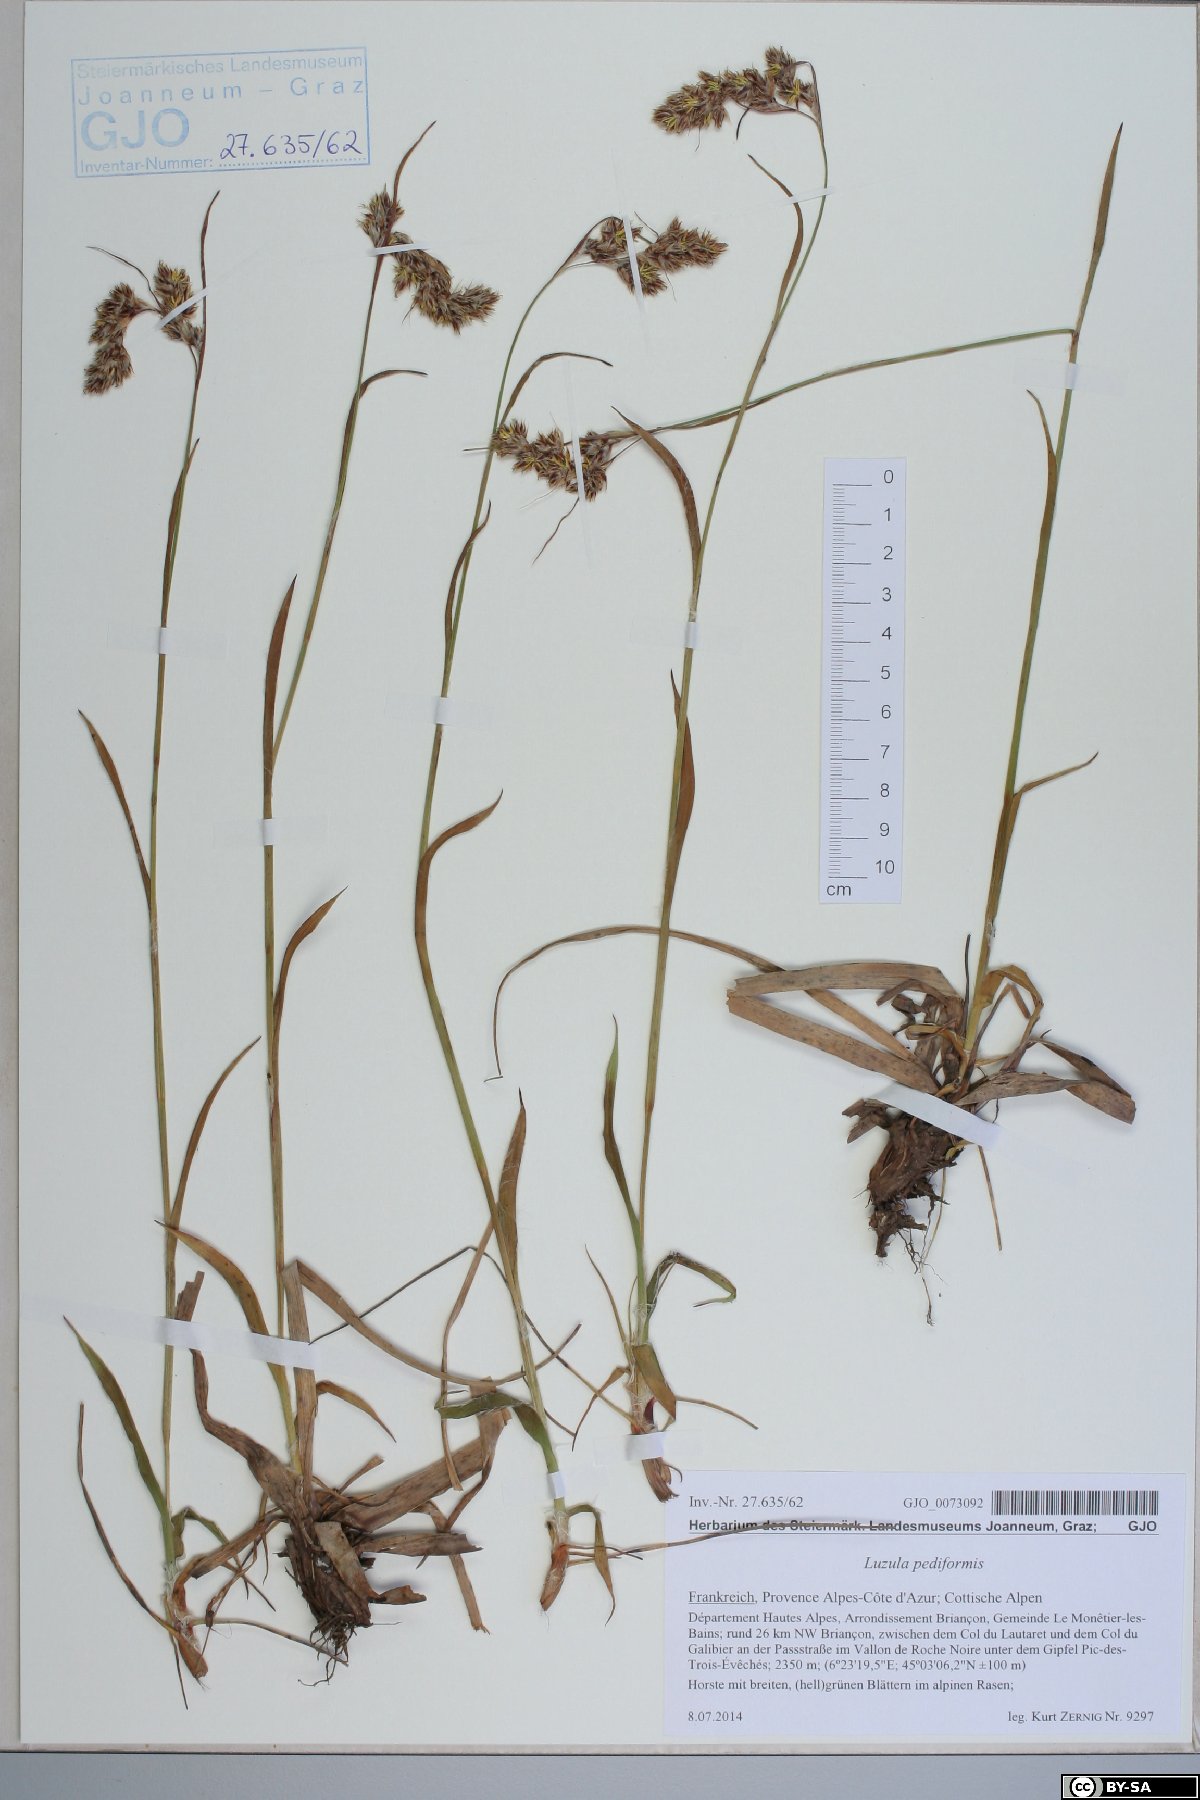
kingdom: Plantae
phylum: Tracheophyta
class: Liliopsida
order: Poales
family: Juncaceae
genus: Luzula
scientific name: Luzula pediformis
